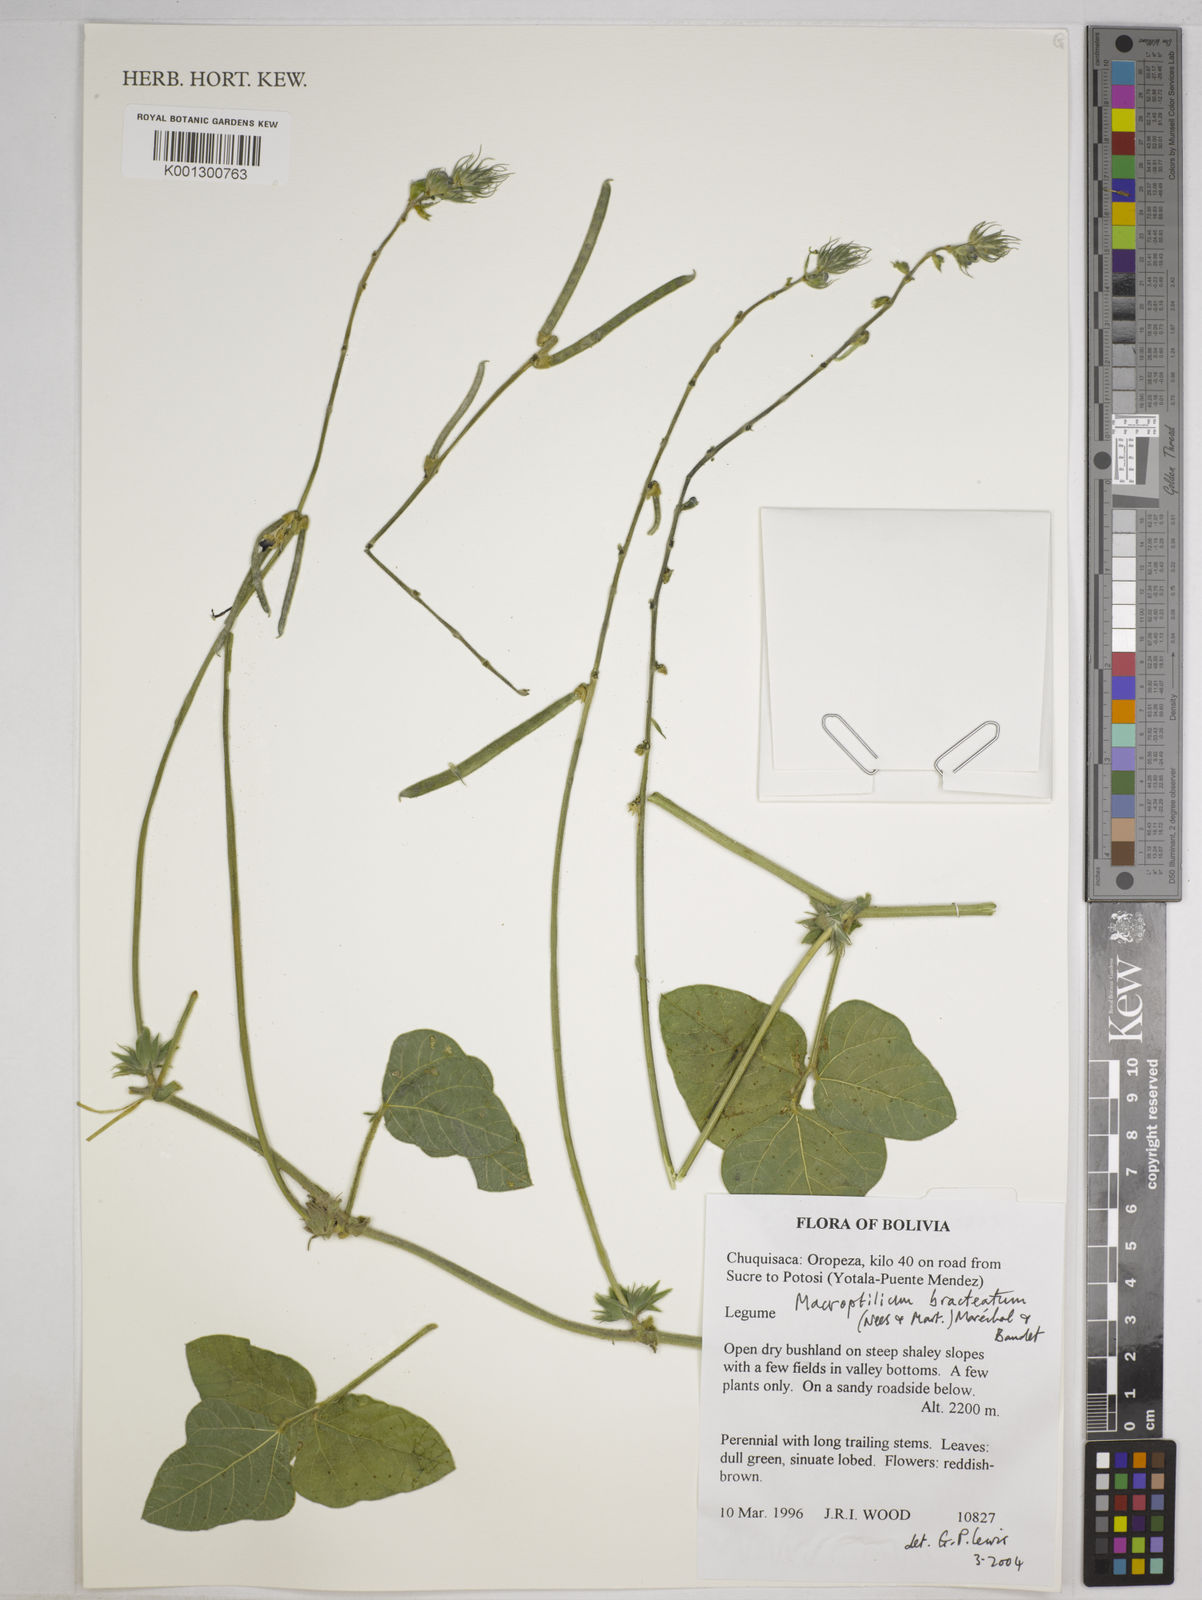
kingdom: Plantae
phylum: Tracheophyta
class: Magnoliopsida
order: Fabales
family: Fabaceae
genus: Macroptilium
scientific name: Macroptilium bracteatum
